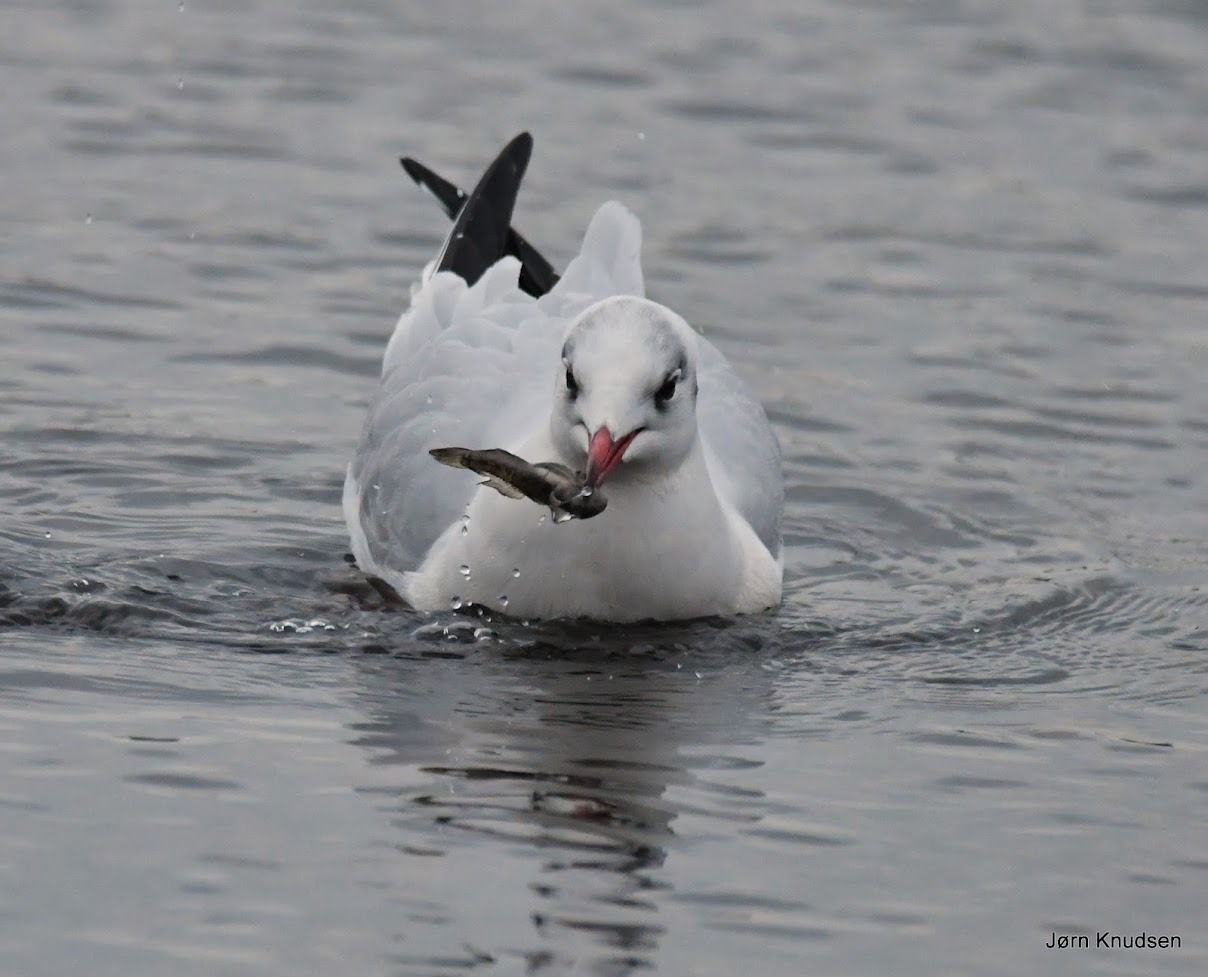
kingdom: Animalia
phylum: Chordata
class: Aves
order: Charadriiformes
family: Laridae
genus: Chroicocephalus
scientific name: Chroicocephalus ridibundus
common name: Hættemåge
